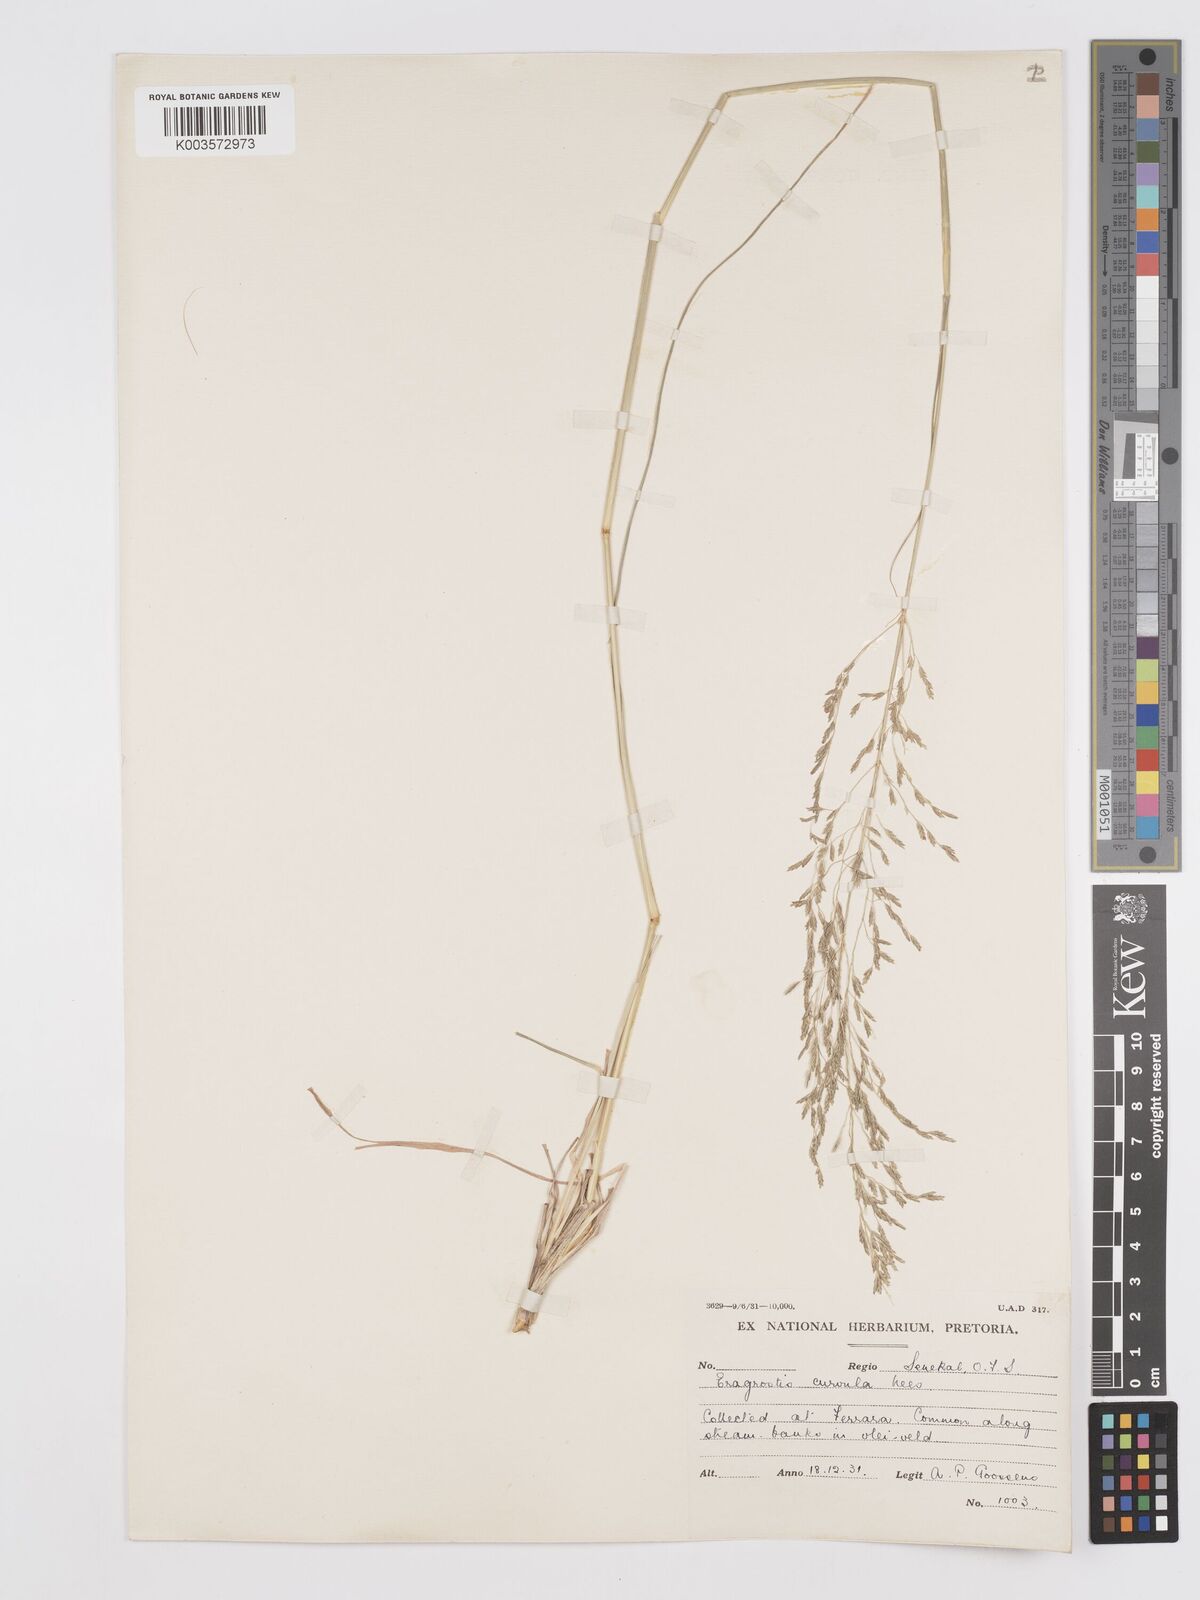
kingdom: Plantae
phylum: Tracheophyta
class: Liliopsida
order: Poales
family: Poaceae
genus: Eragrostis
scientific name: Eragrostis curvula
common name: African love-grass
